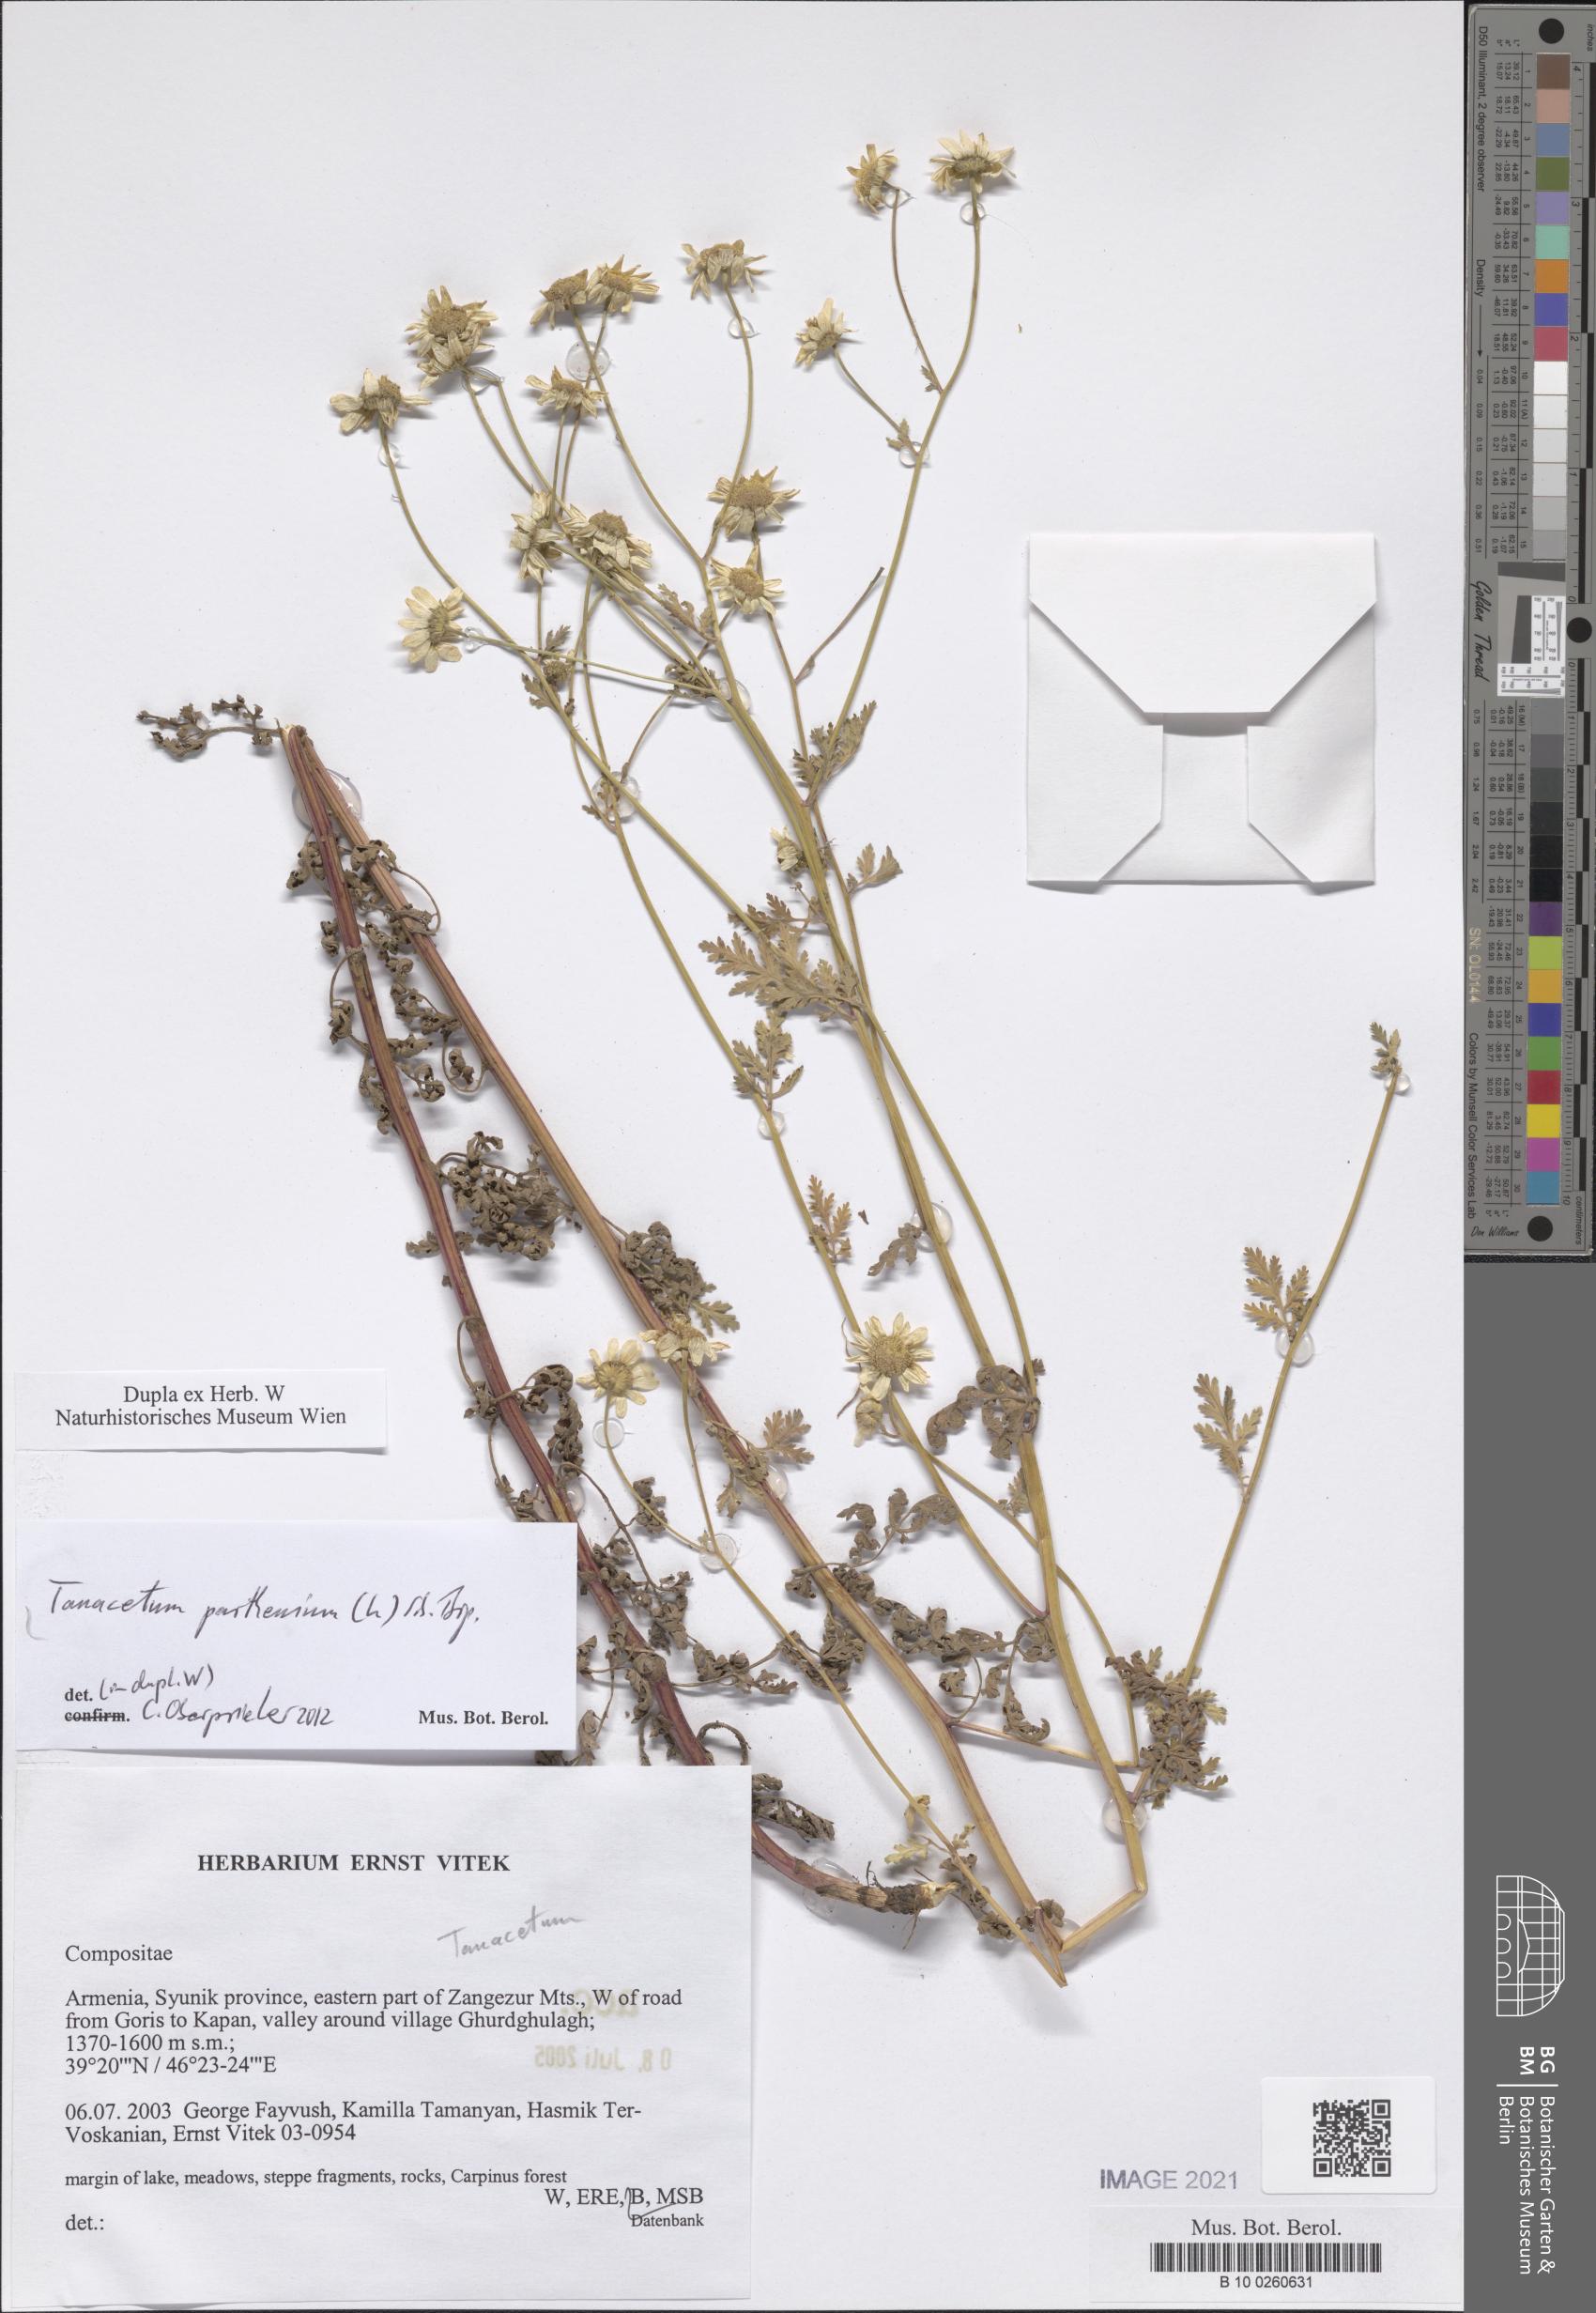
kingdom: Plantae
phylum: Tracheophyta
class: Magnoliopsida
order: Asterales
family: Asteraceae
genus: Tanacetum
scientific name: Tanacetum parthenium
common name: Feverfew
